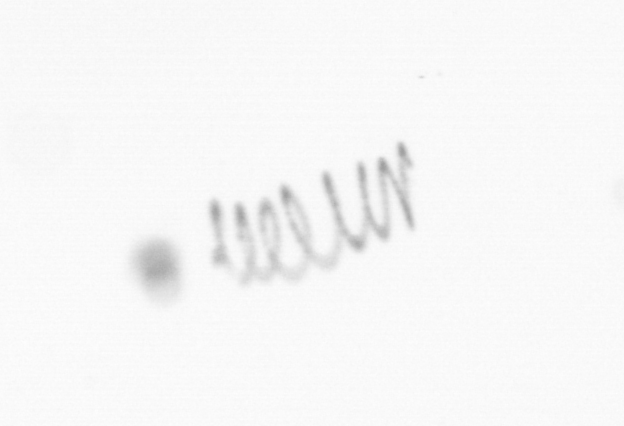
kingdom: Chromista
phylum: Ochrophyta
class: Bacillariophyceae
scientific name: Bacillariophyceae
